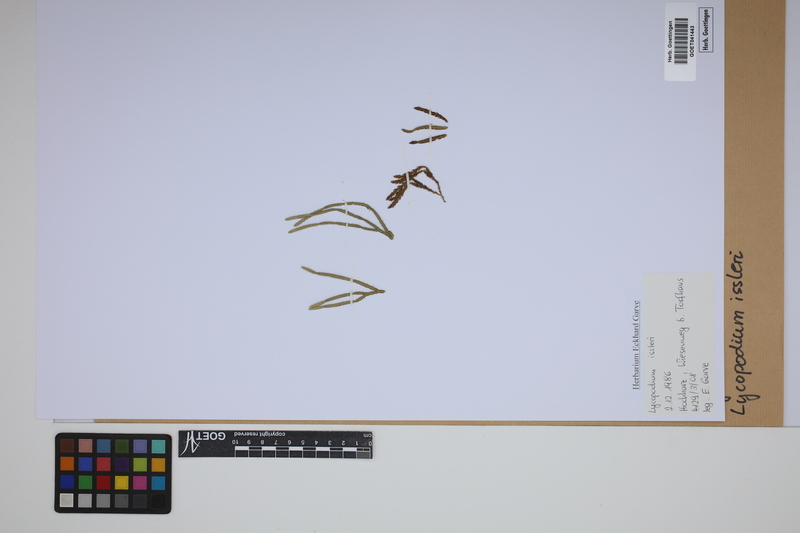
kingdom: Plantae
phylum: Tracheophyta
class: Lycopodiopsida
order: Lycopodiales
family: Lycopodiaceae
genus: Diphasiastrum
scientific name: Diphasiastrum issleri
